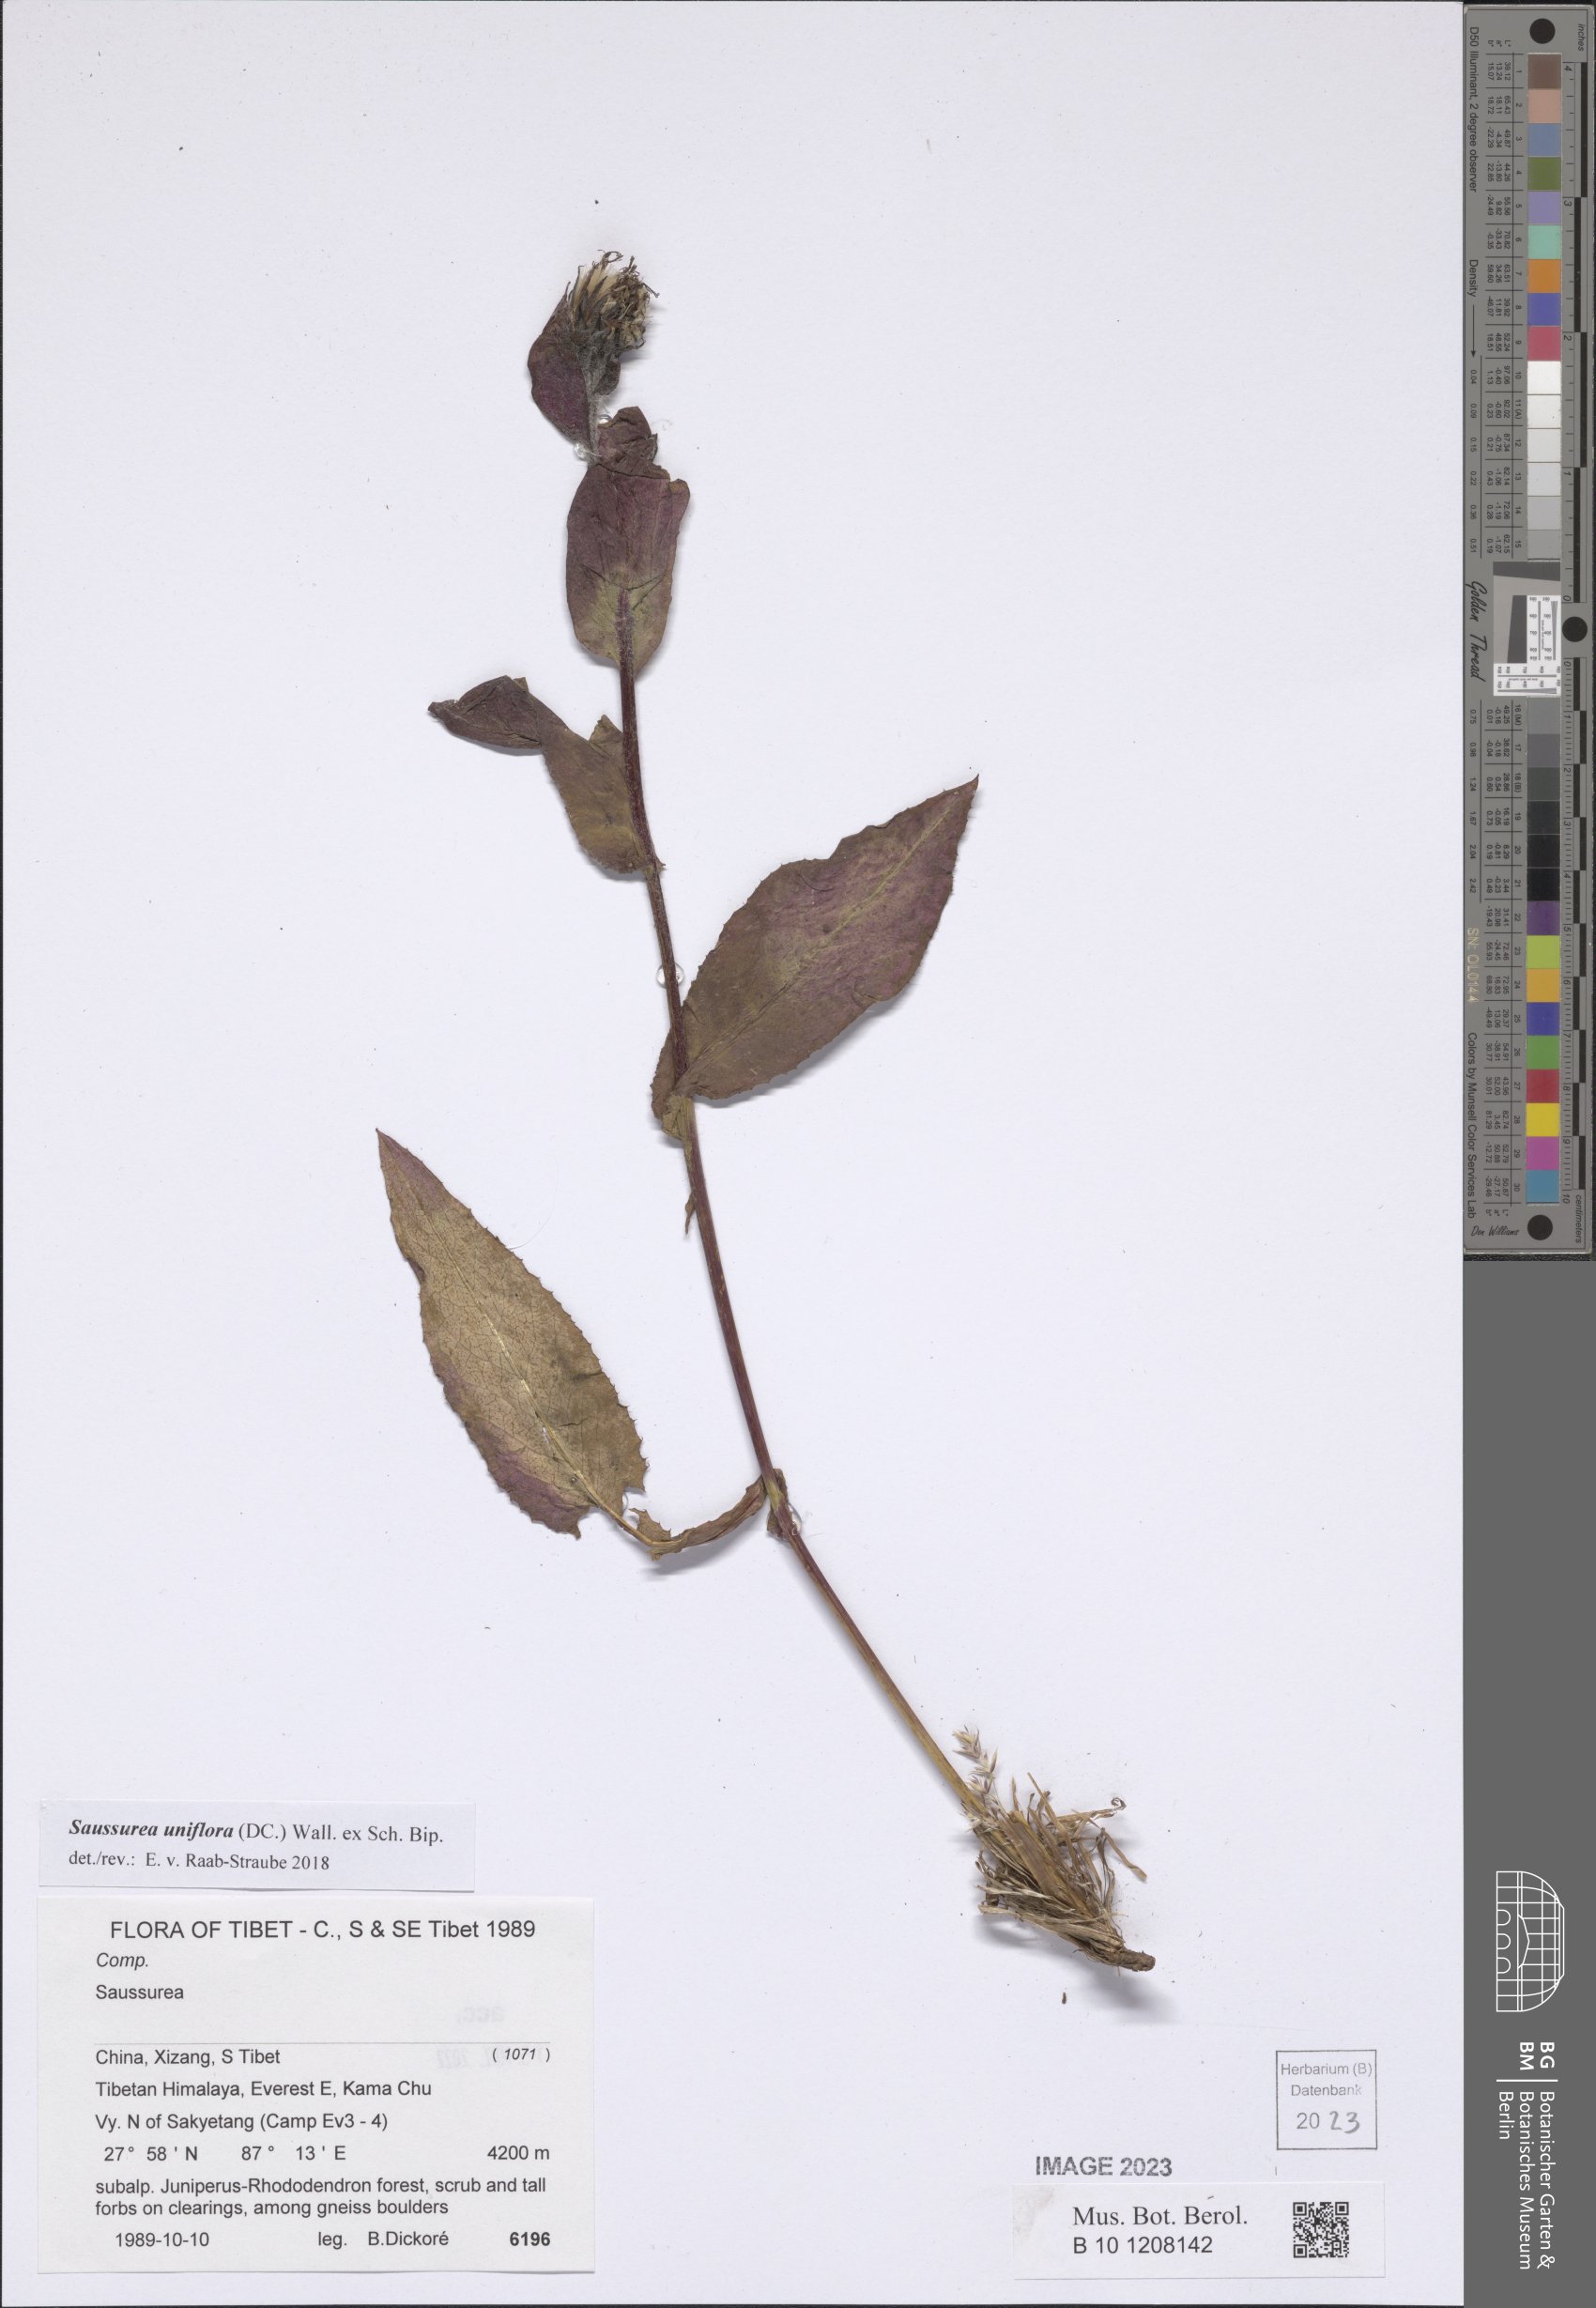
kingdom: Plantae
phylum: Tracheophyta
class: Magnoliopsida
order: Asterales
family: Asteraceae
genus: Saussurea
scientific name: Saussurea uniflora
